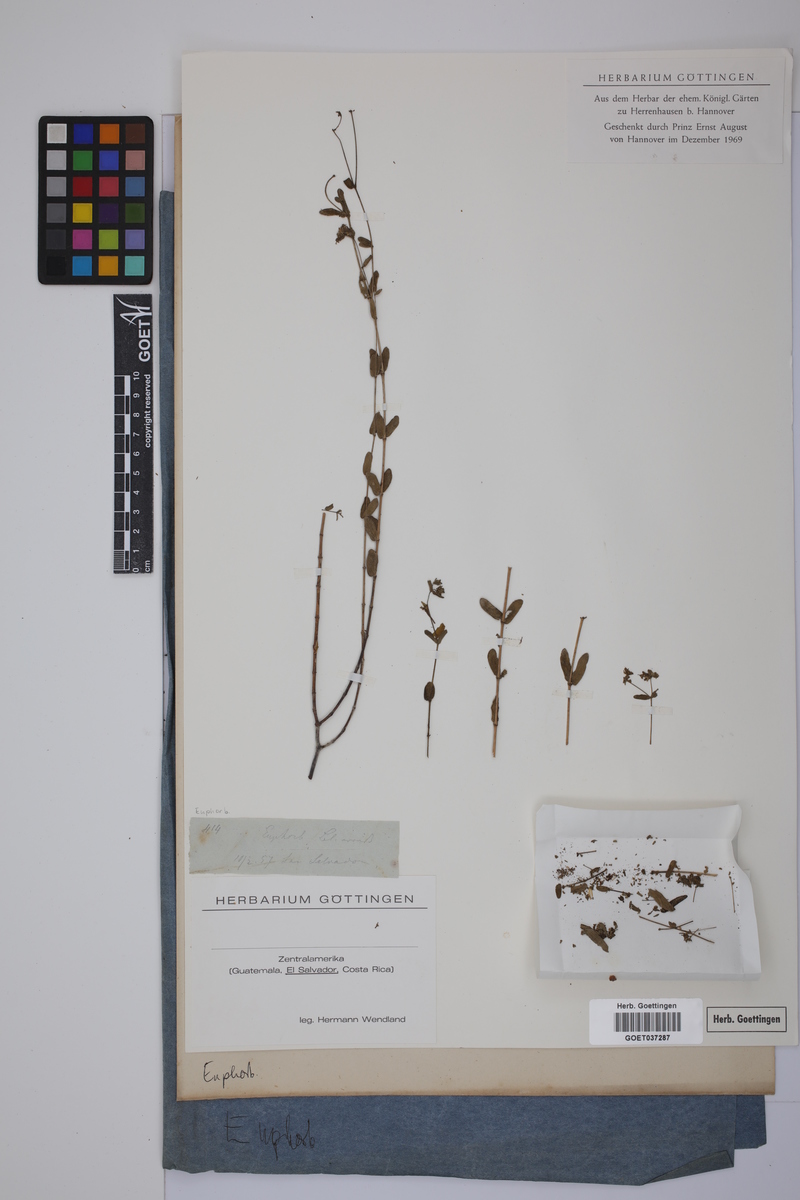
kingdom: Plantae
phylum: Tracheophyta
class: Magnoliopsida
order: Malpighiales
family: Euphorbiaceae
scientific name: Euphorbiaceae
